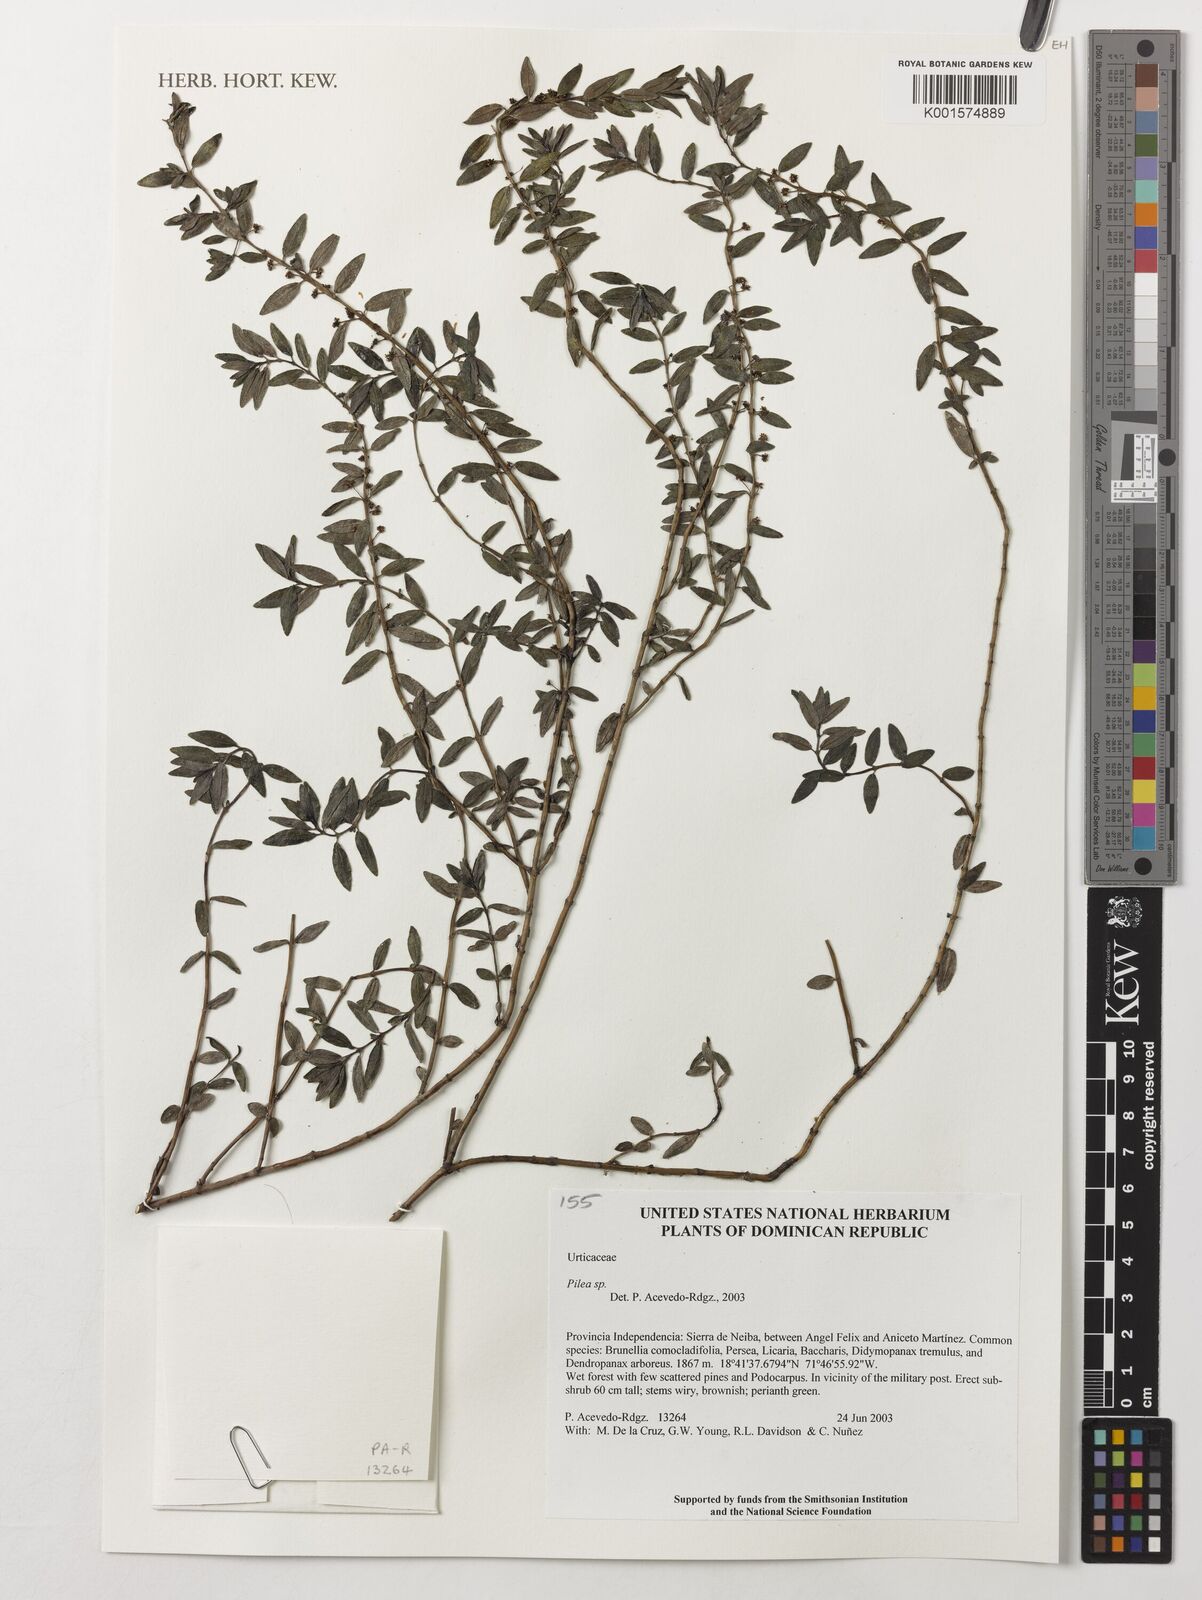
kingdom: Plantae
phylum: Tracheophyta
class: Magnoliopsida
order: Rosales
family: Urticaceae
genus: Pilea
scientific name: Pilea
